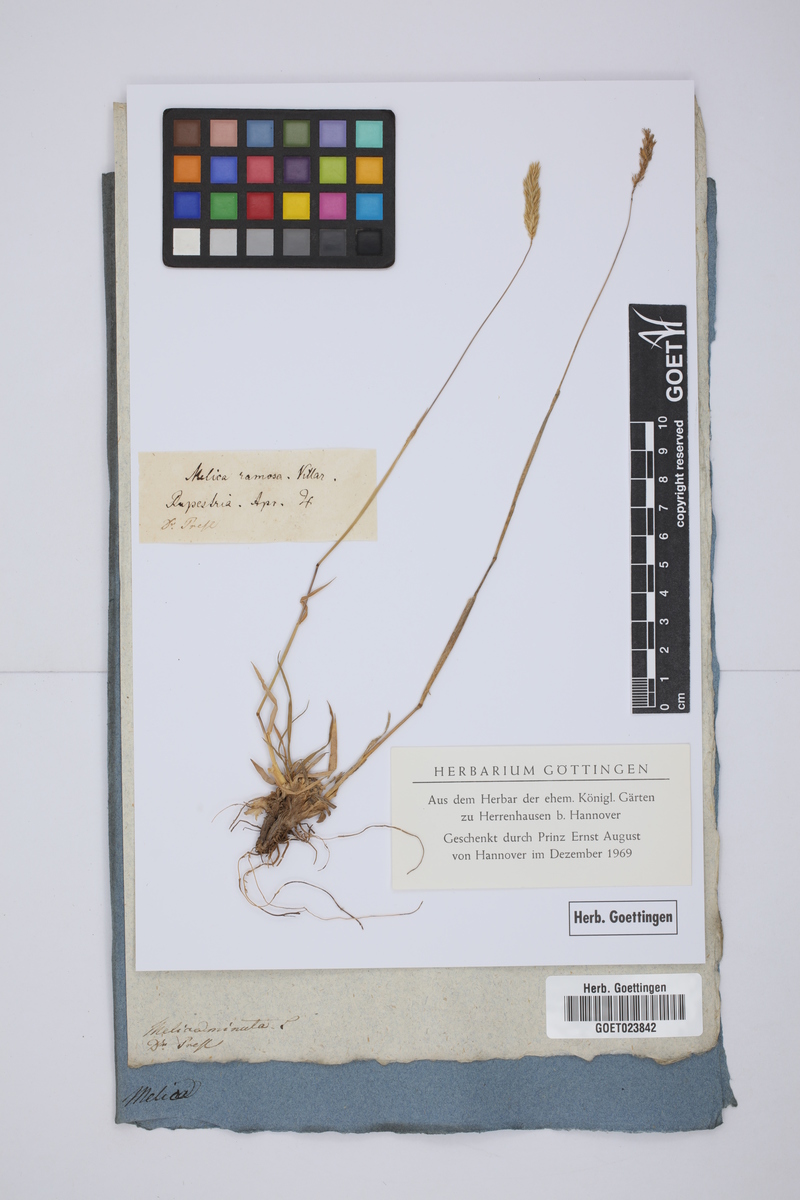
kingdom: Plantae
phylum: Tracheophyta
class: Liliopsida
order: Poales
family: Poaceae
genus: Melica
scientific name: Melica minuta
